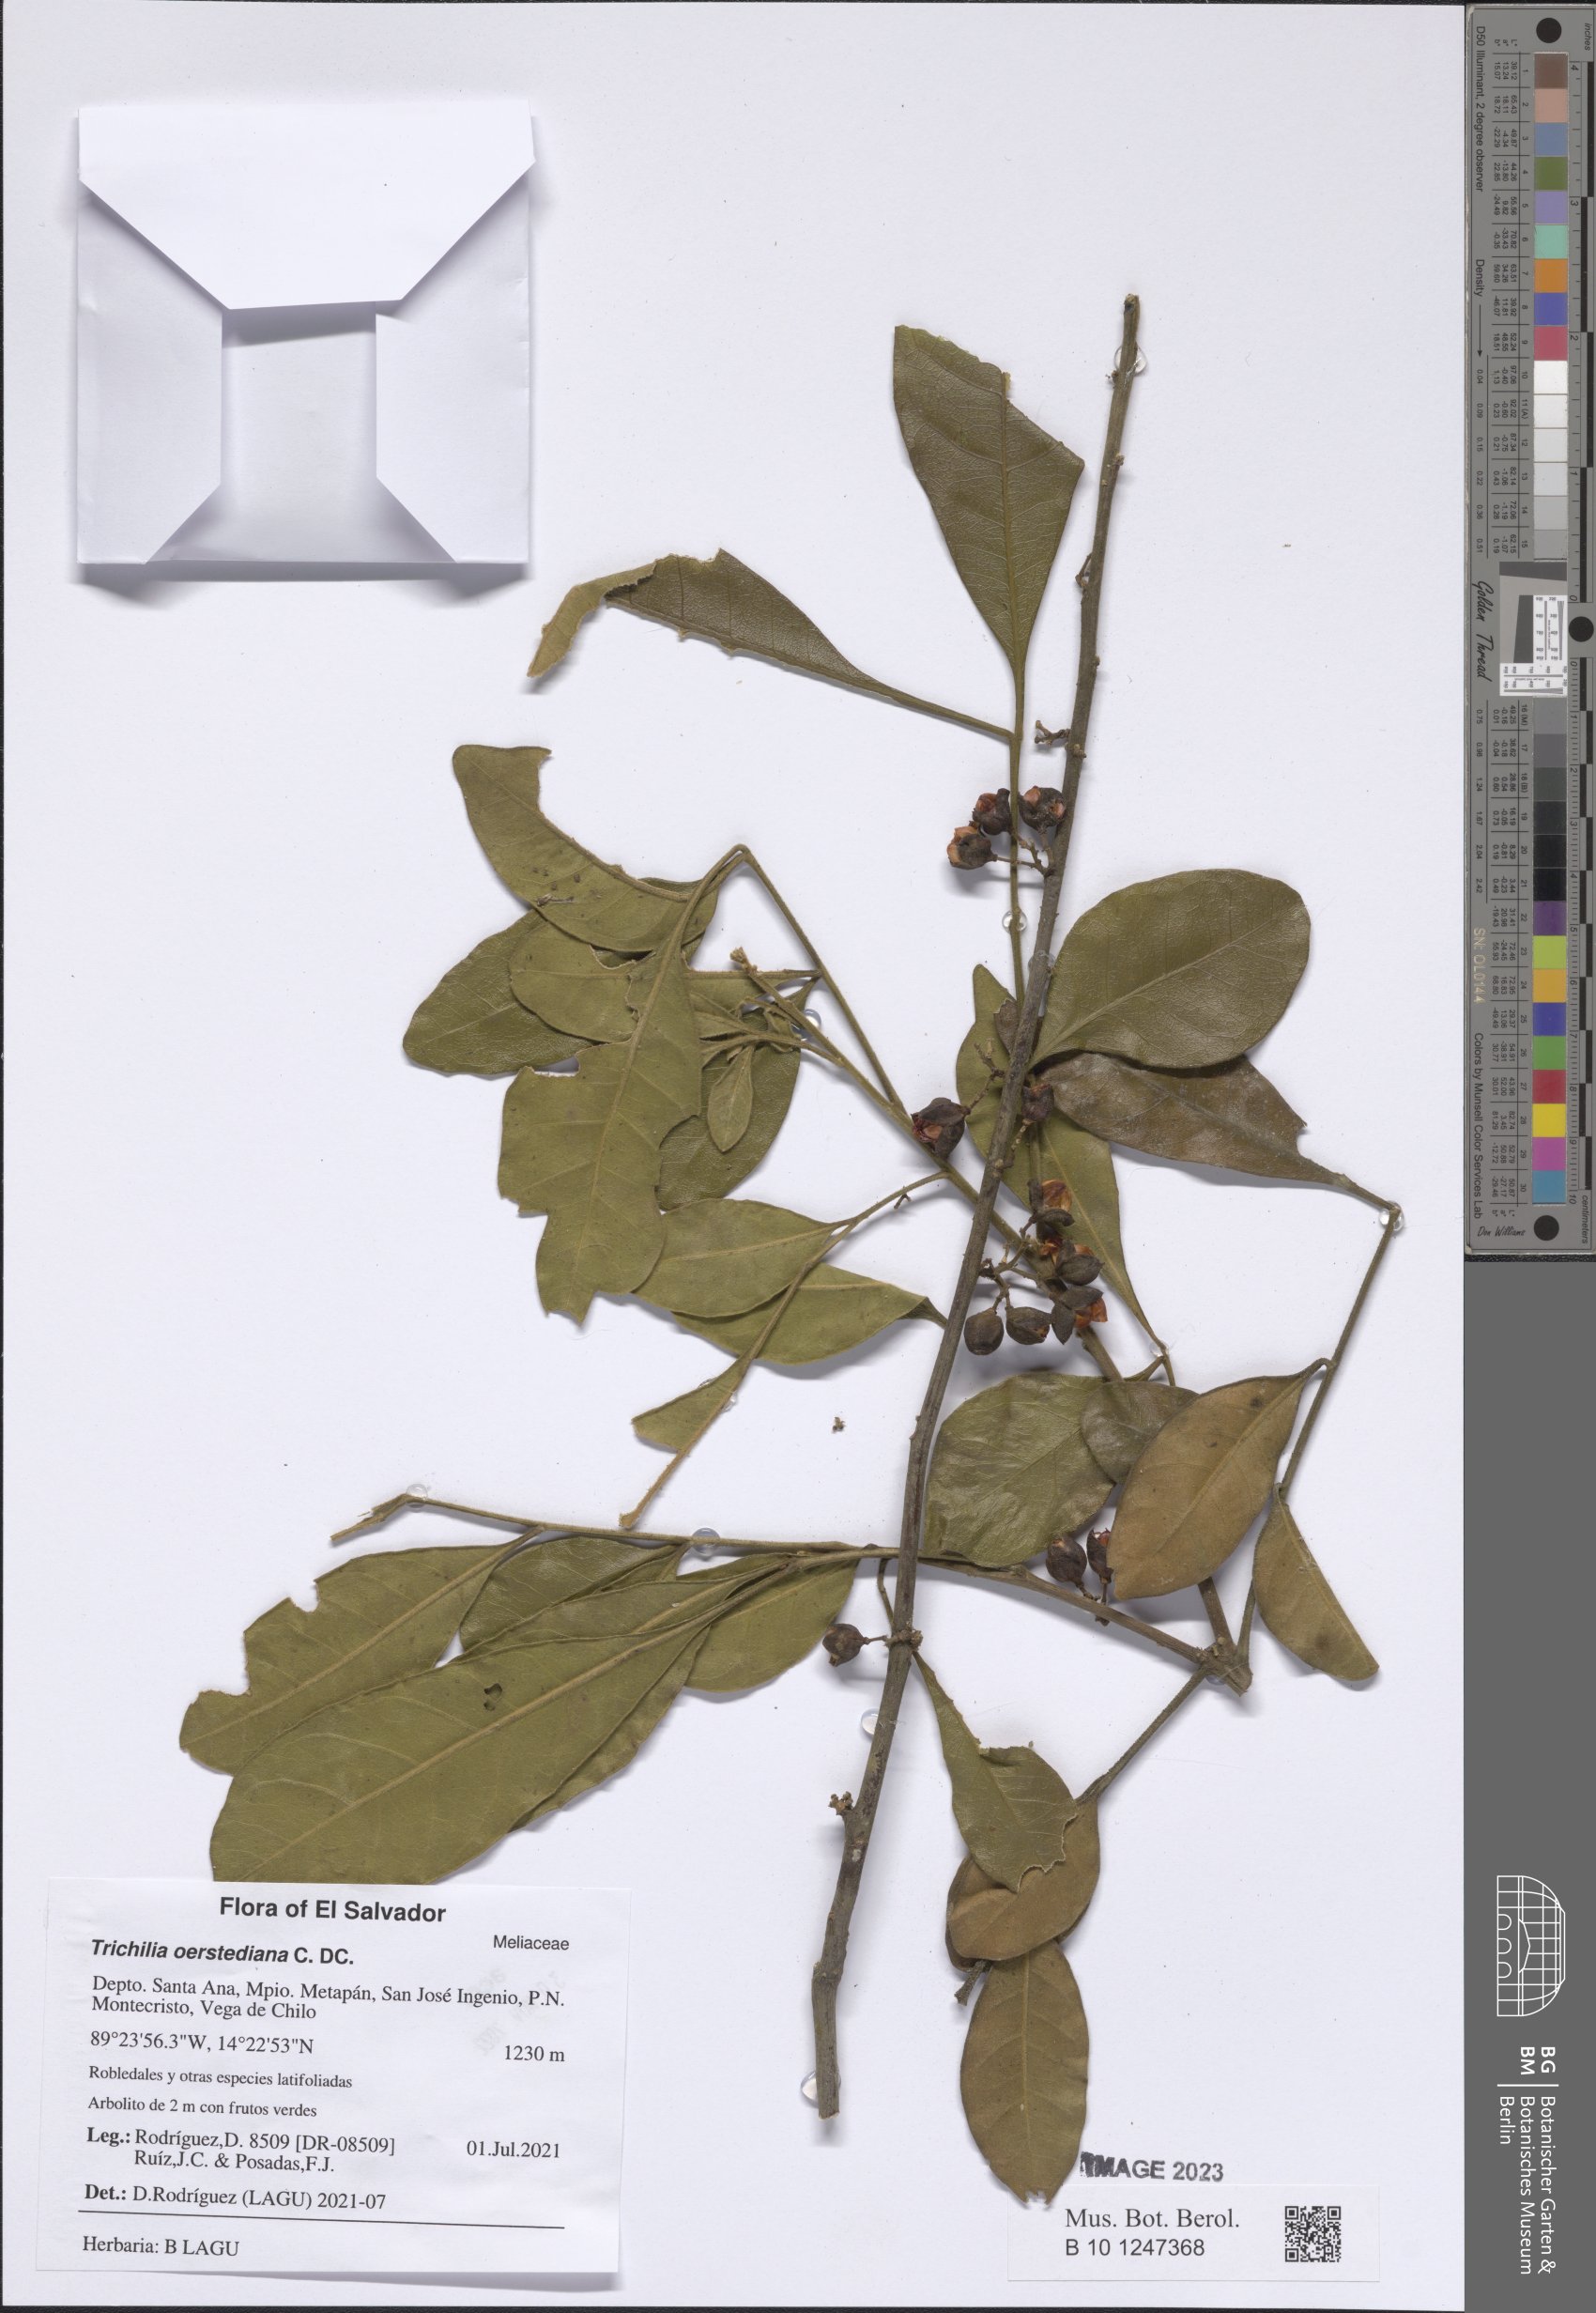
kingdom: Plantae
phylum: Tracheophyta
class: Magnoliopsida
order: Sapindales
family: Meliaceae
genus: Trichilia
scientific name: Trichilia havanensis
